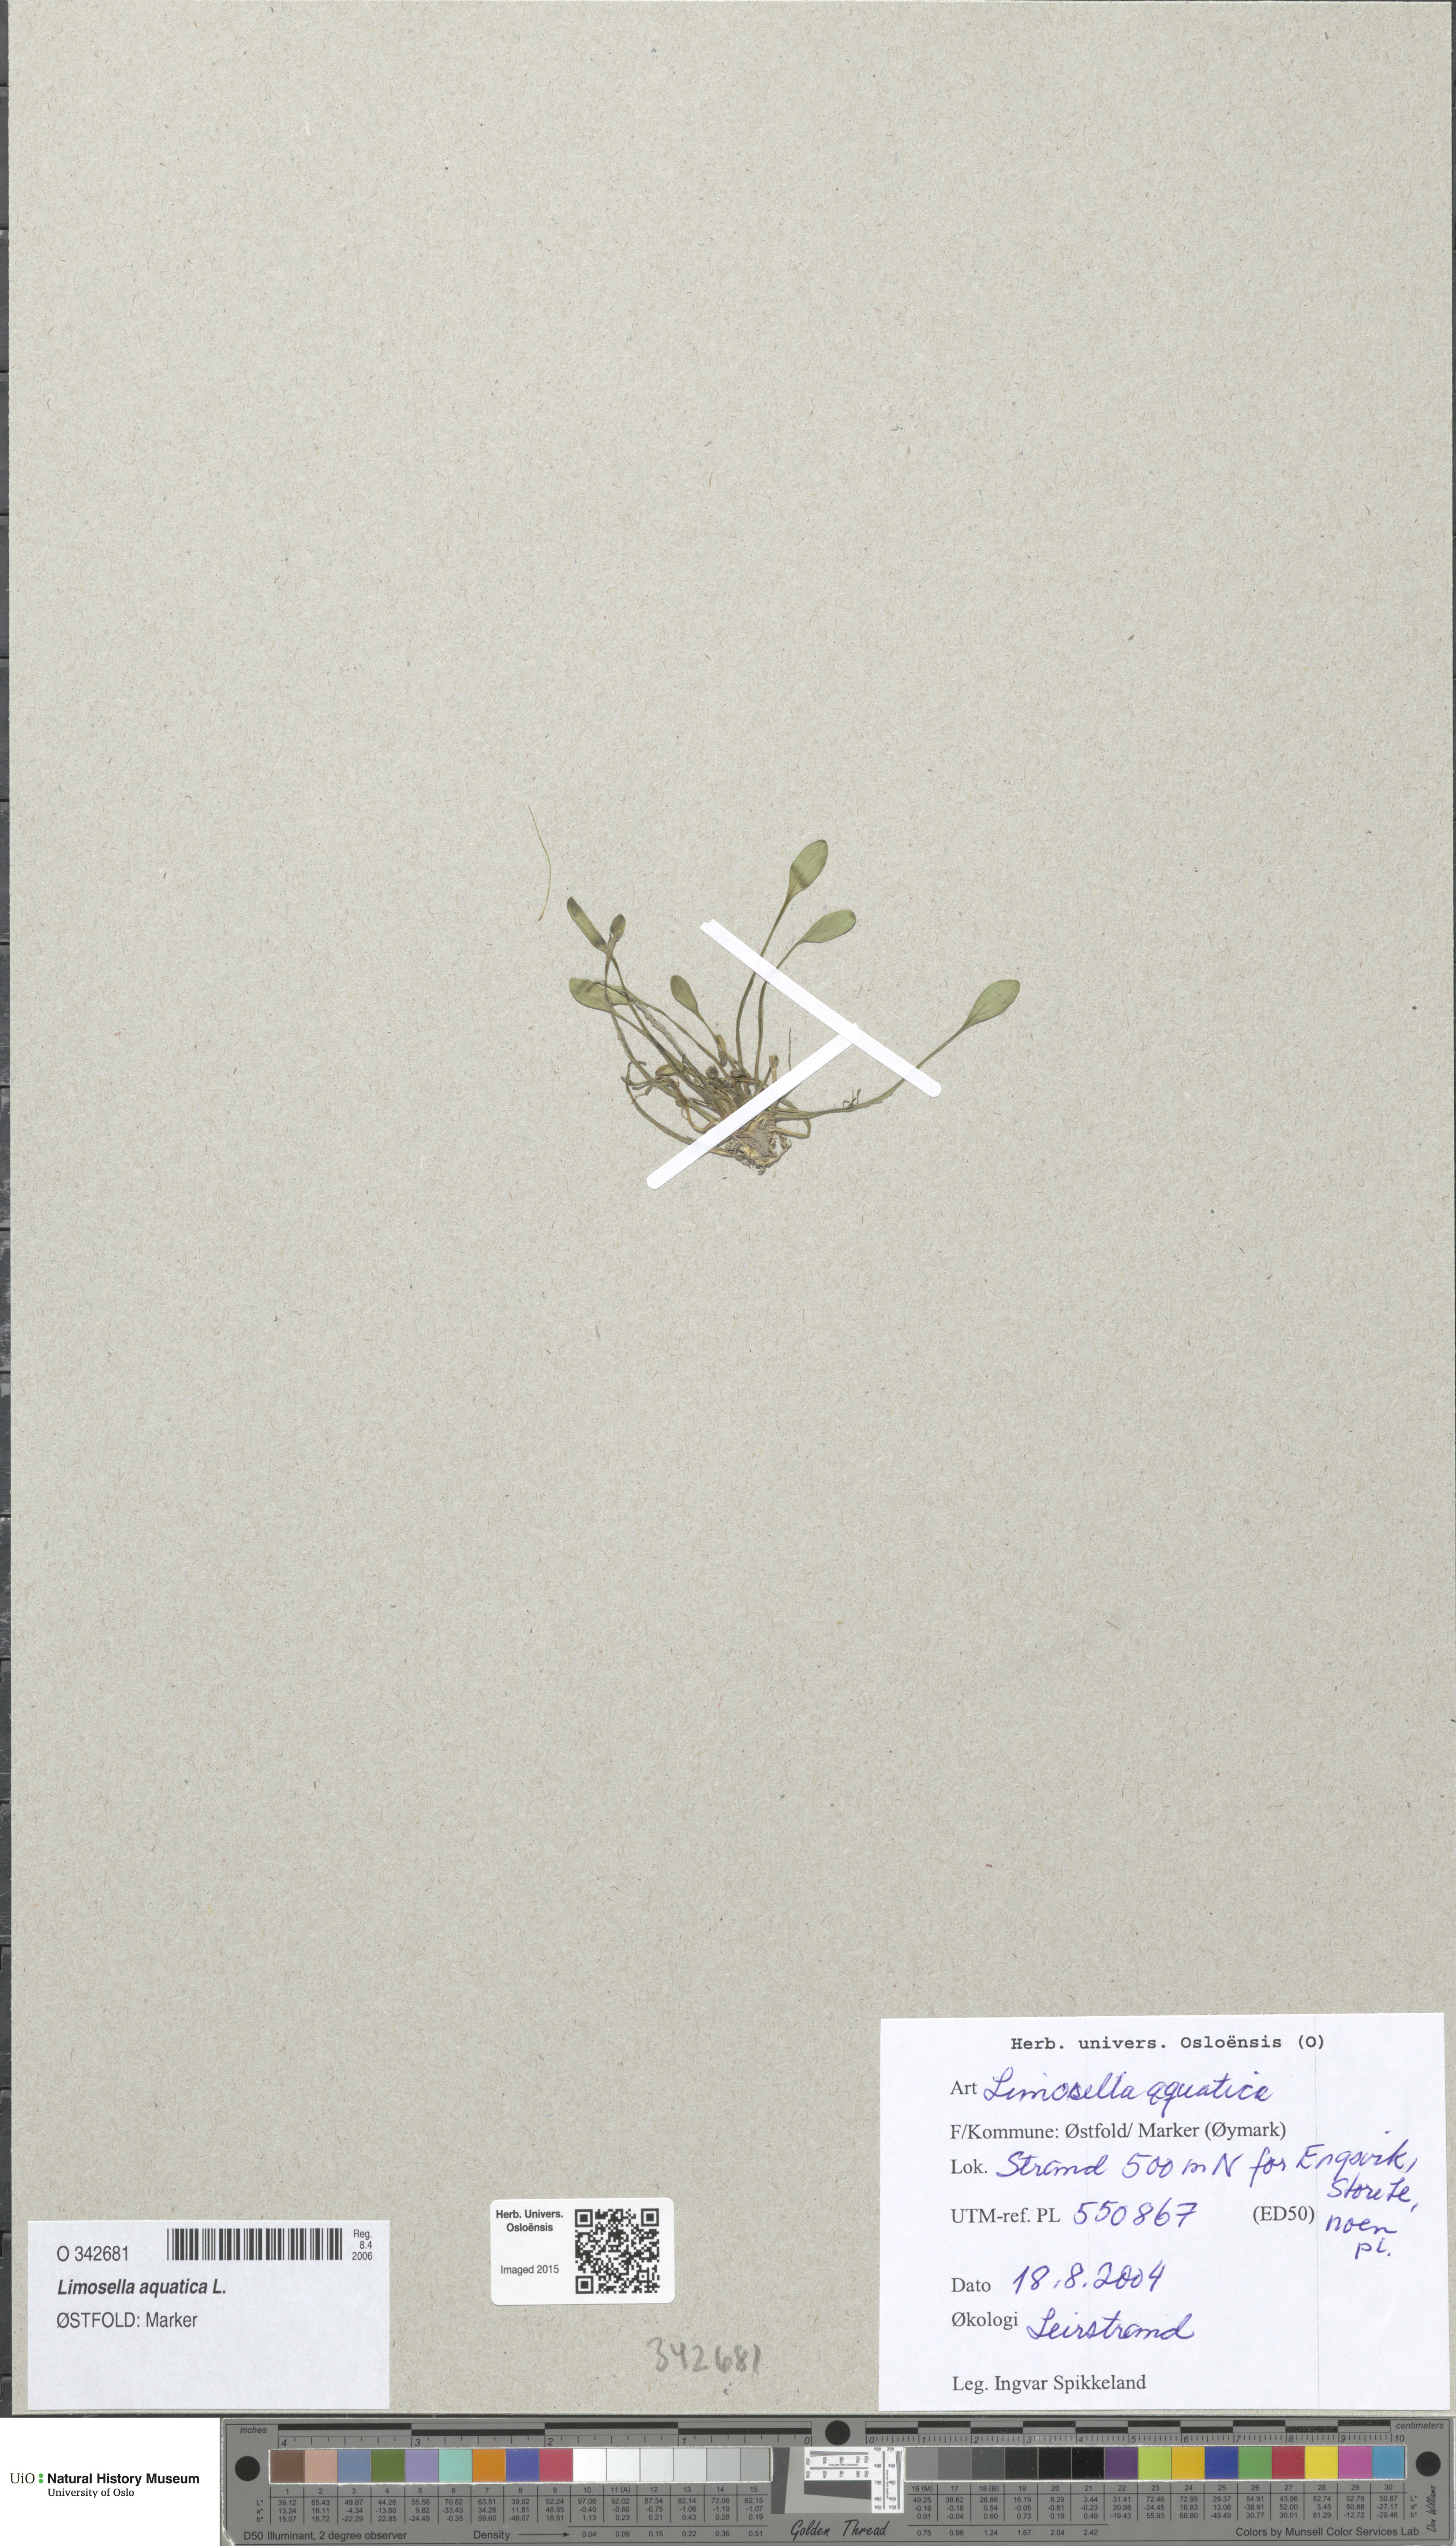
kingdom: Plantae
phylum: Tracheophyta
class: Magnoliopsida
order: Lamiales
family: Scrophulariaceae
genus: Limosella
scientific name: Limosella aquatica
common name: Mudwort
